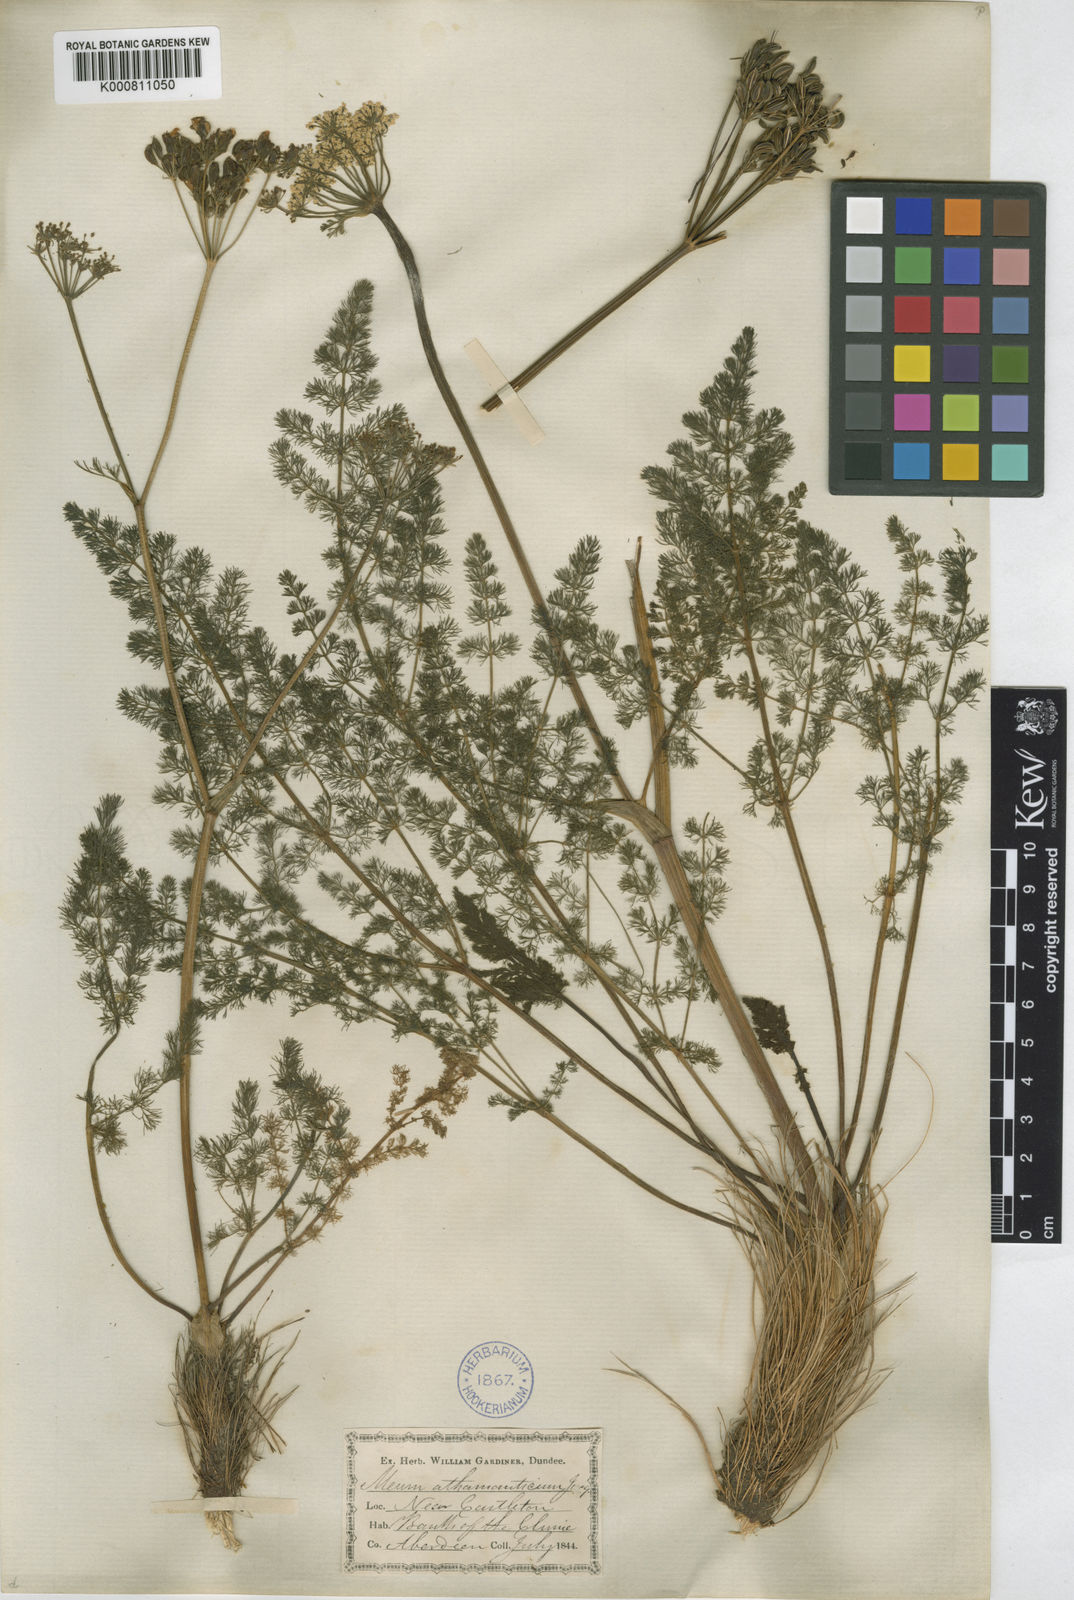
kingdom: Plantae
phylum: Tracheophyta
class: Magnoliopsida
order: Apiales
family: Apiaceae
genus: Meum
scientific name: Meum athamanticum
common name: Spignel
